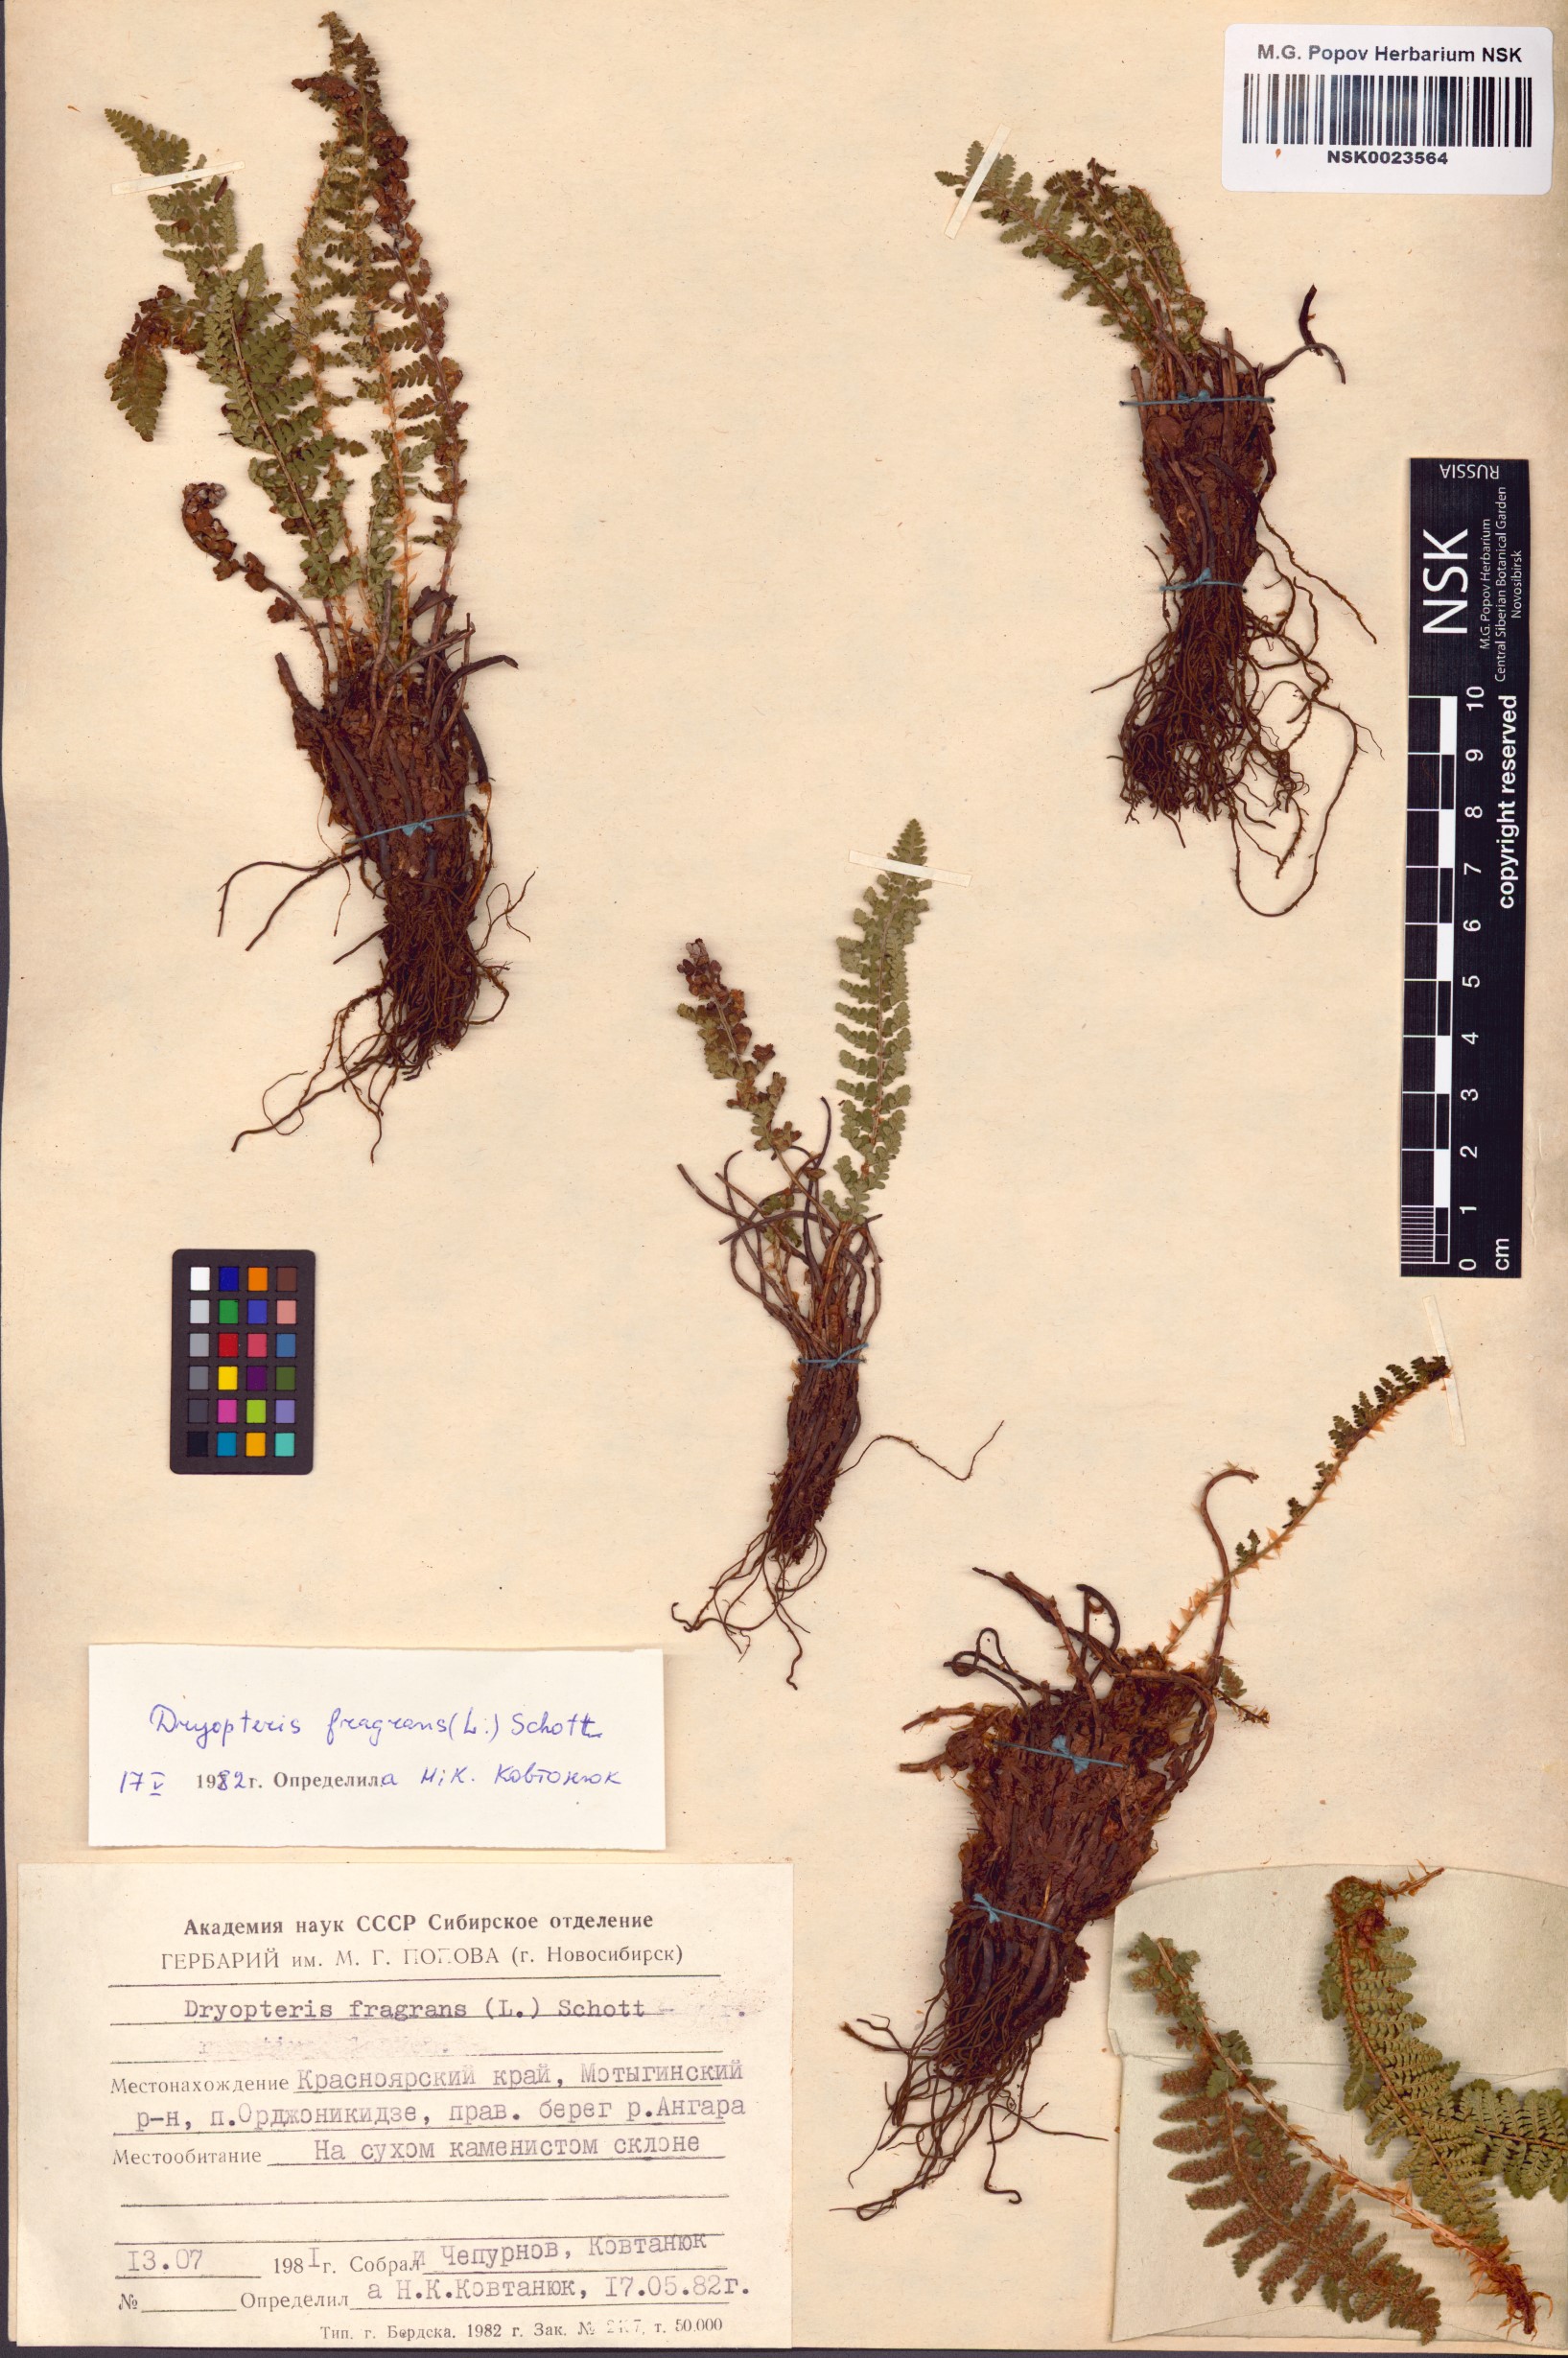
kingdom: Plantae
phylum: Tracheophyta
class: Polypodiopsida
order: Polypodiales
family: Dryopteridaceae
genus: Dryopteris
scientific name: Dryopteris fragrans
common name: Fragrant wood fern
